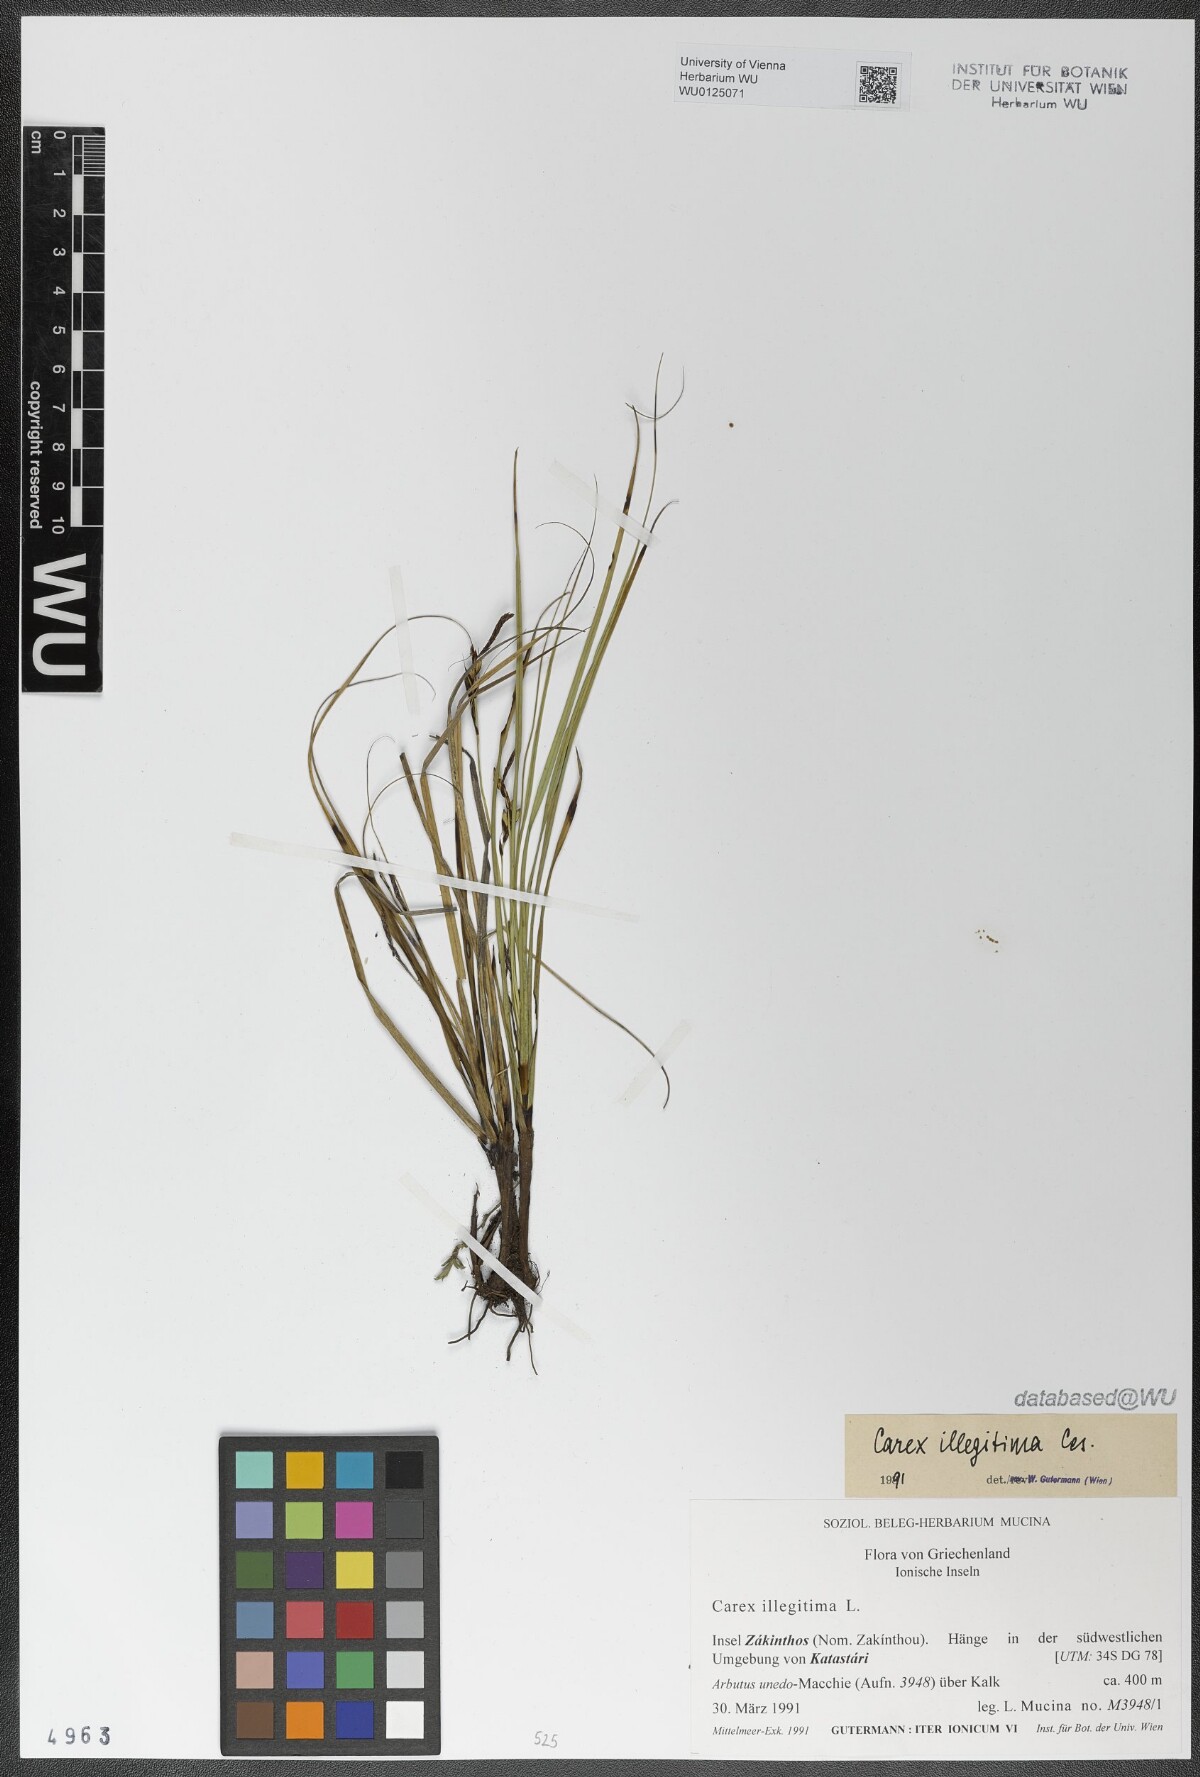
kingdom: Plantae
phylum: Tracheophyta
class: Liliopsida
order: Poales
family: Cyperaceae
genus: Carex
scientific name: Carex illegitima
